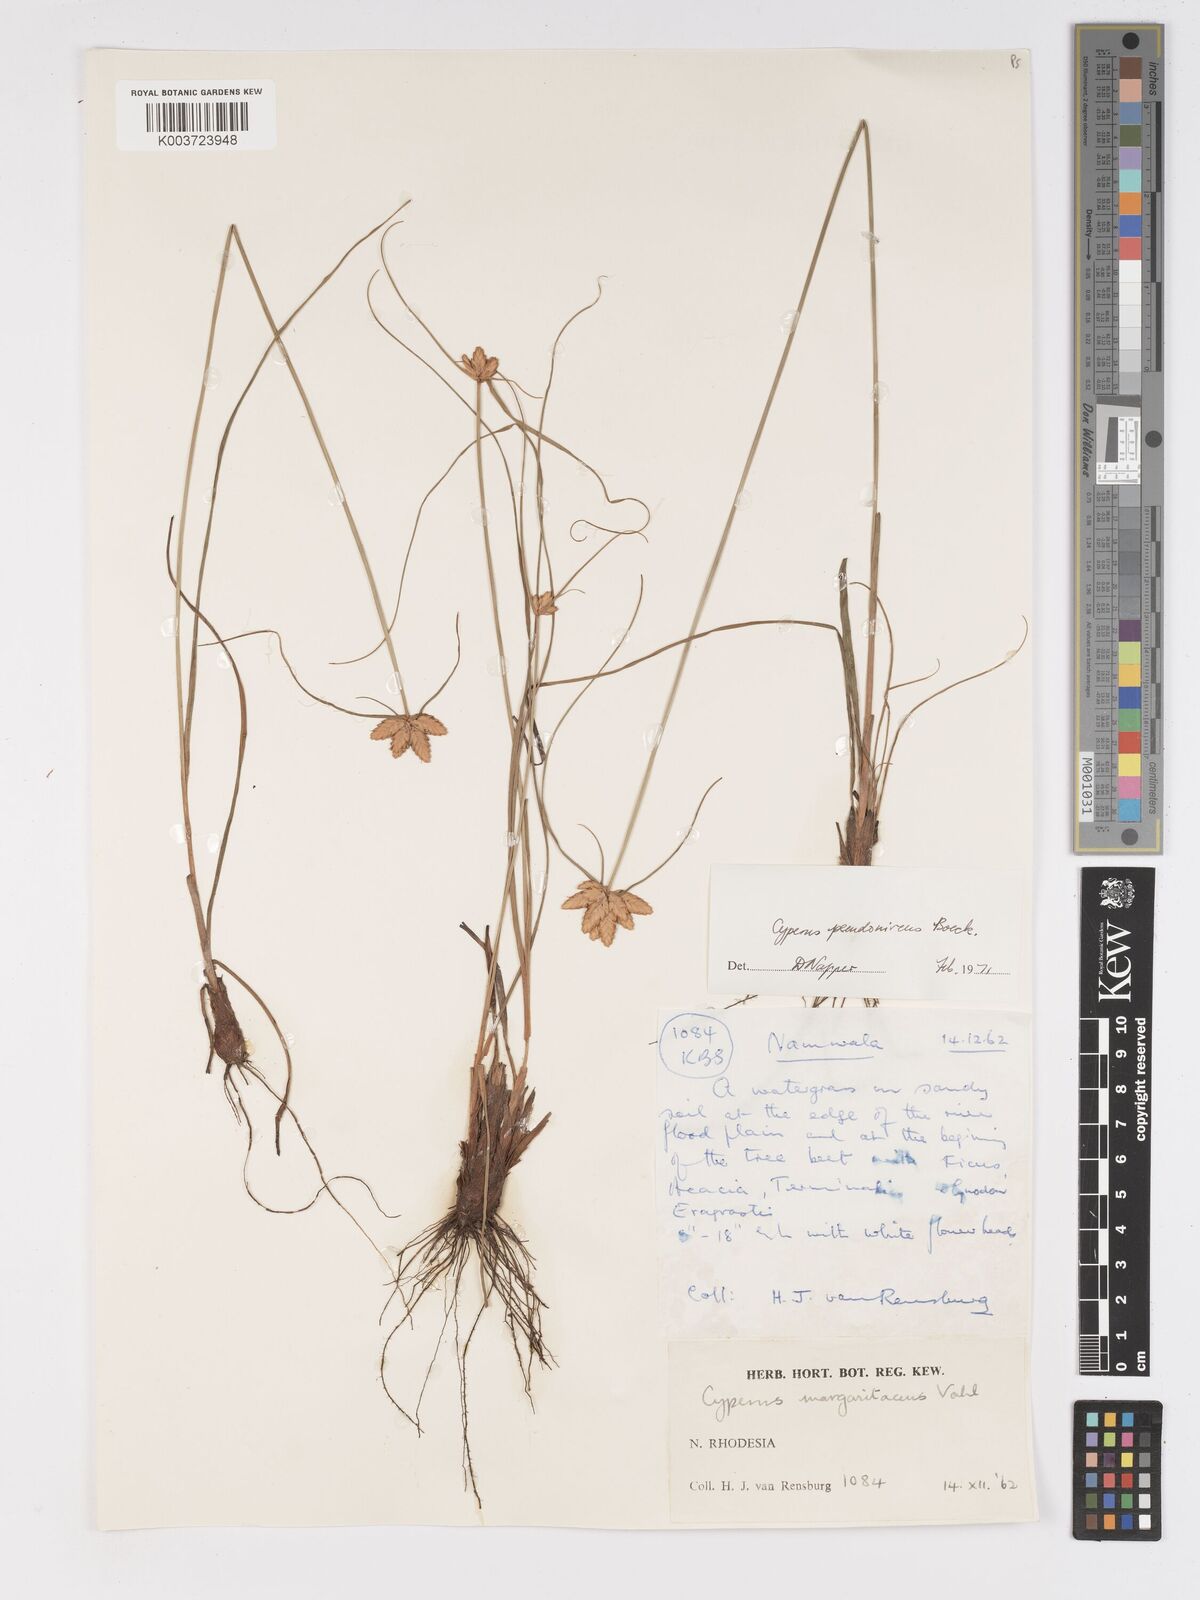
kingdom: Plantae
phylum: Tracheophyta
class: Liliopsida
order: Poales
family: Cyperaceae
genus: Cyperus
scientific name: Cyperus margaritaceus
